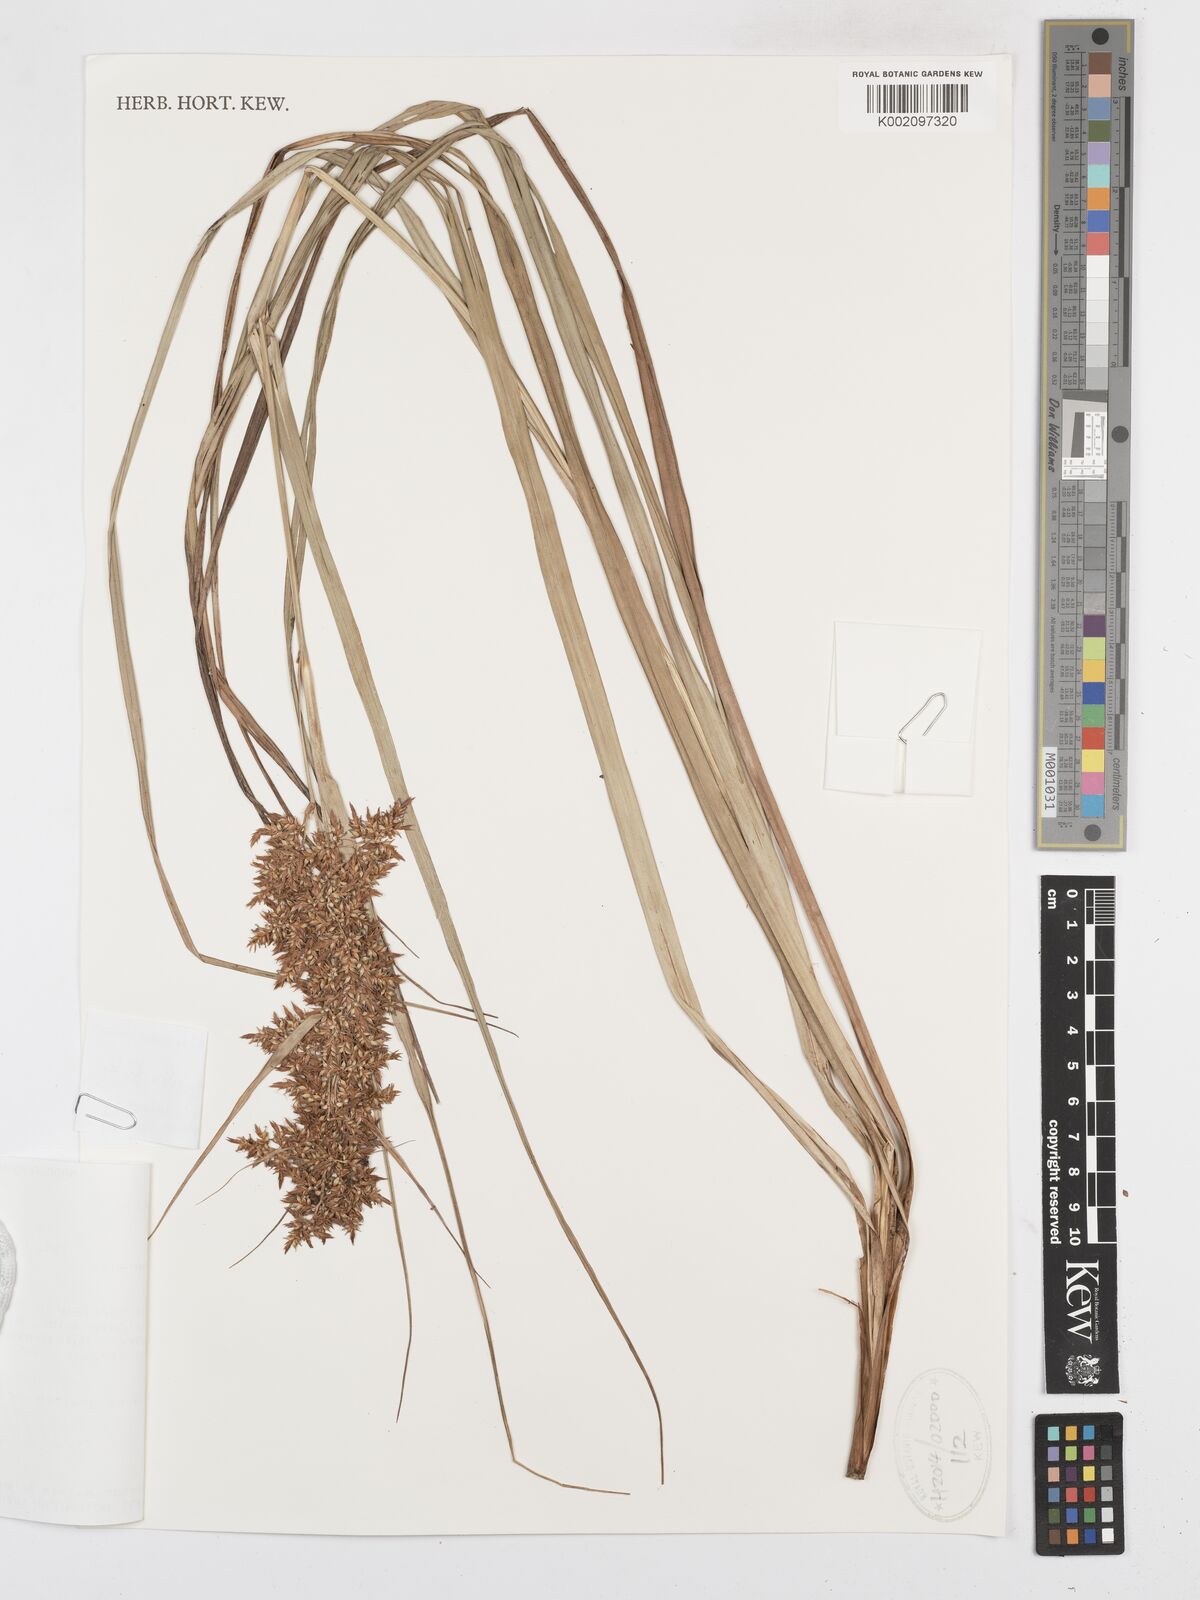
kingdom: Plantae
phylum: Tracheophyta
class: Liliopsida
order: Poales
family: Cyperaceae
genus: Carex
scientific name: Carex pyramidalis
